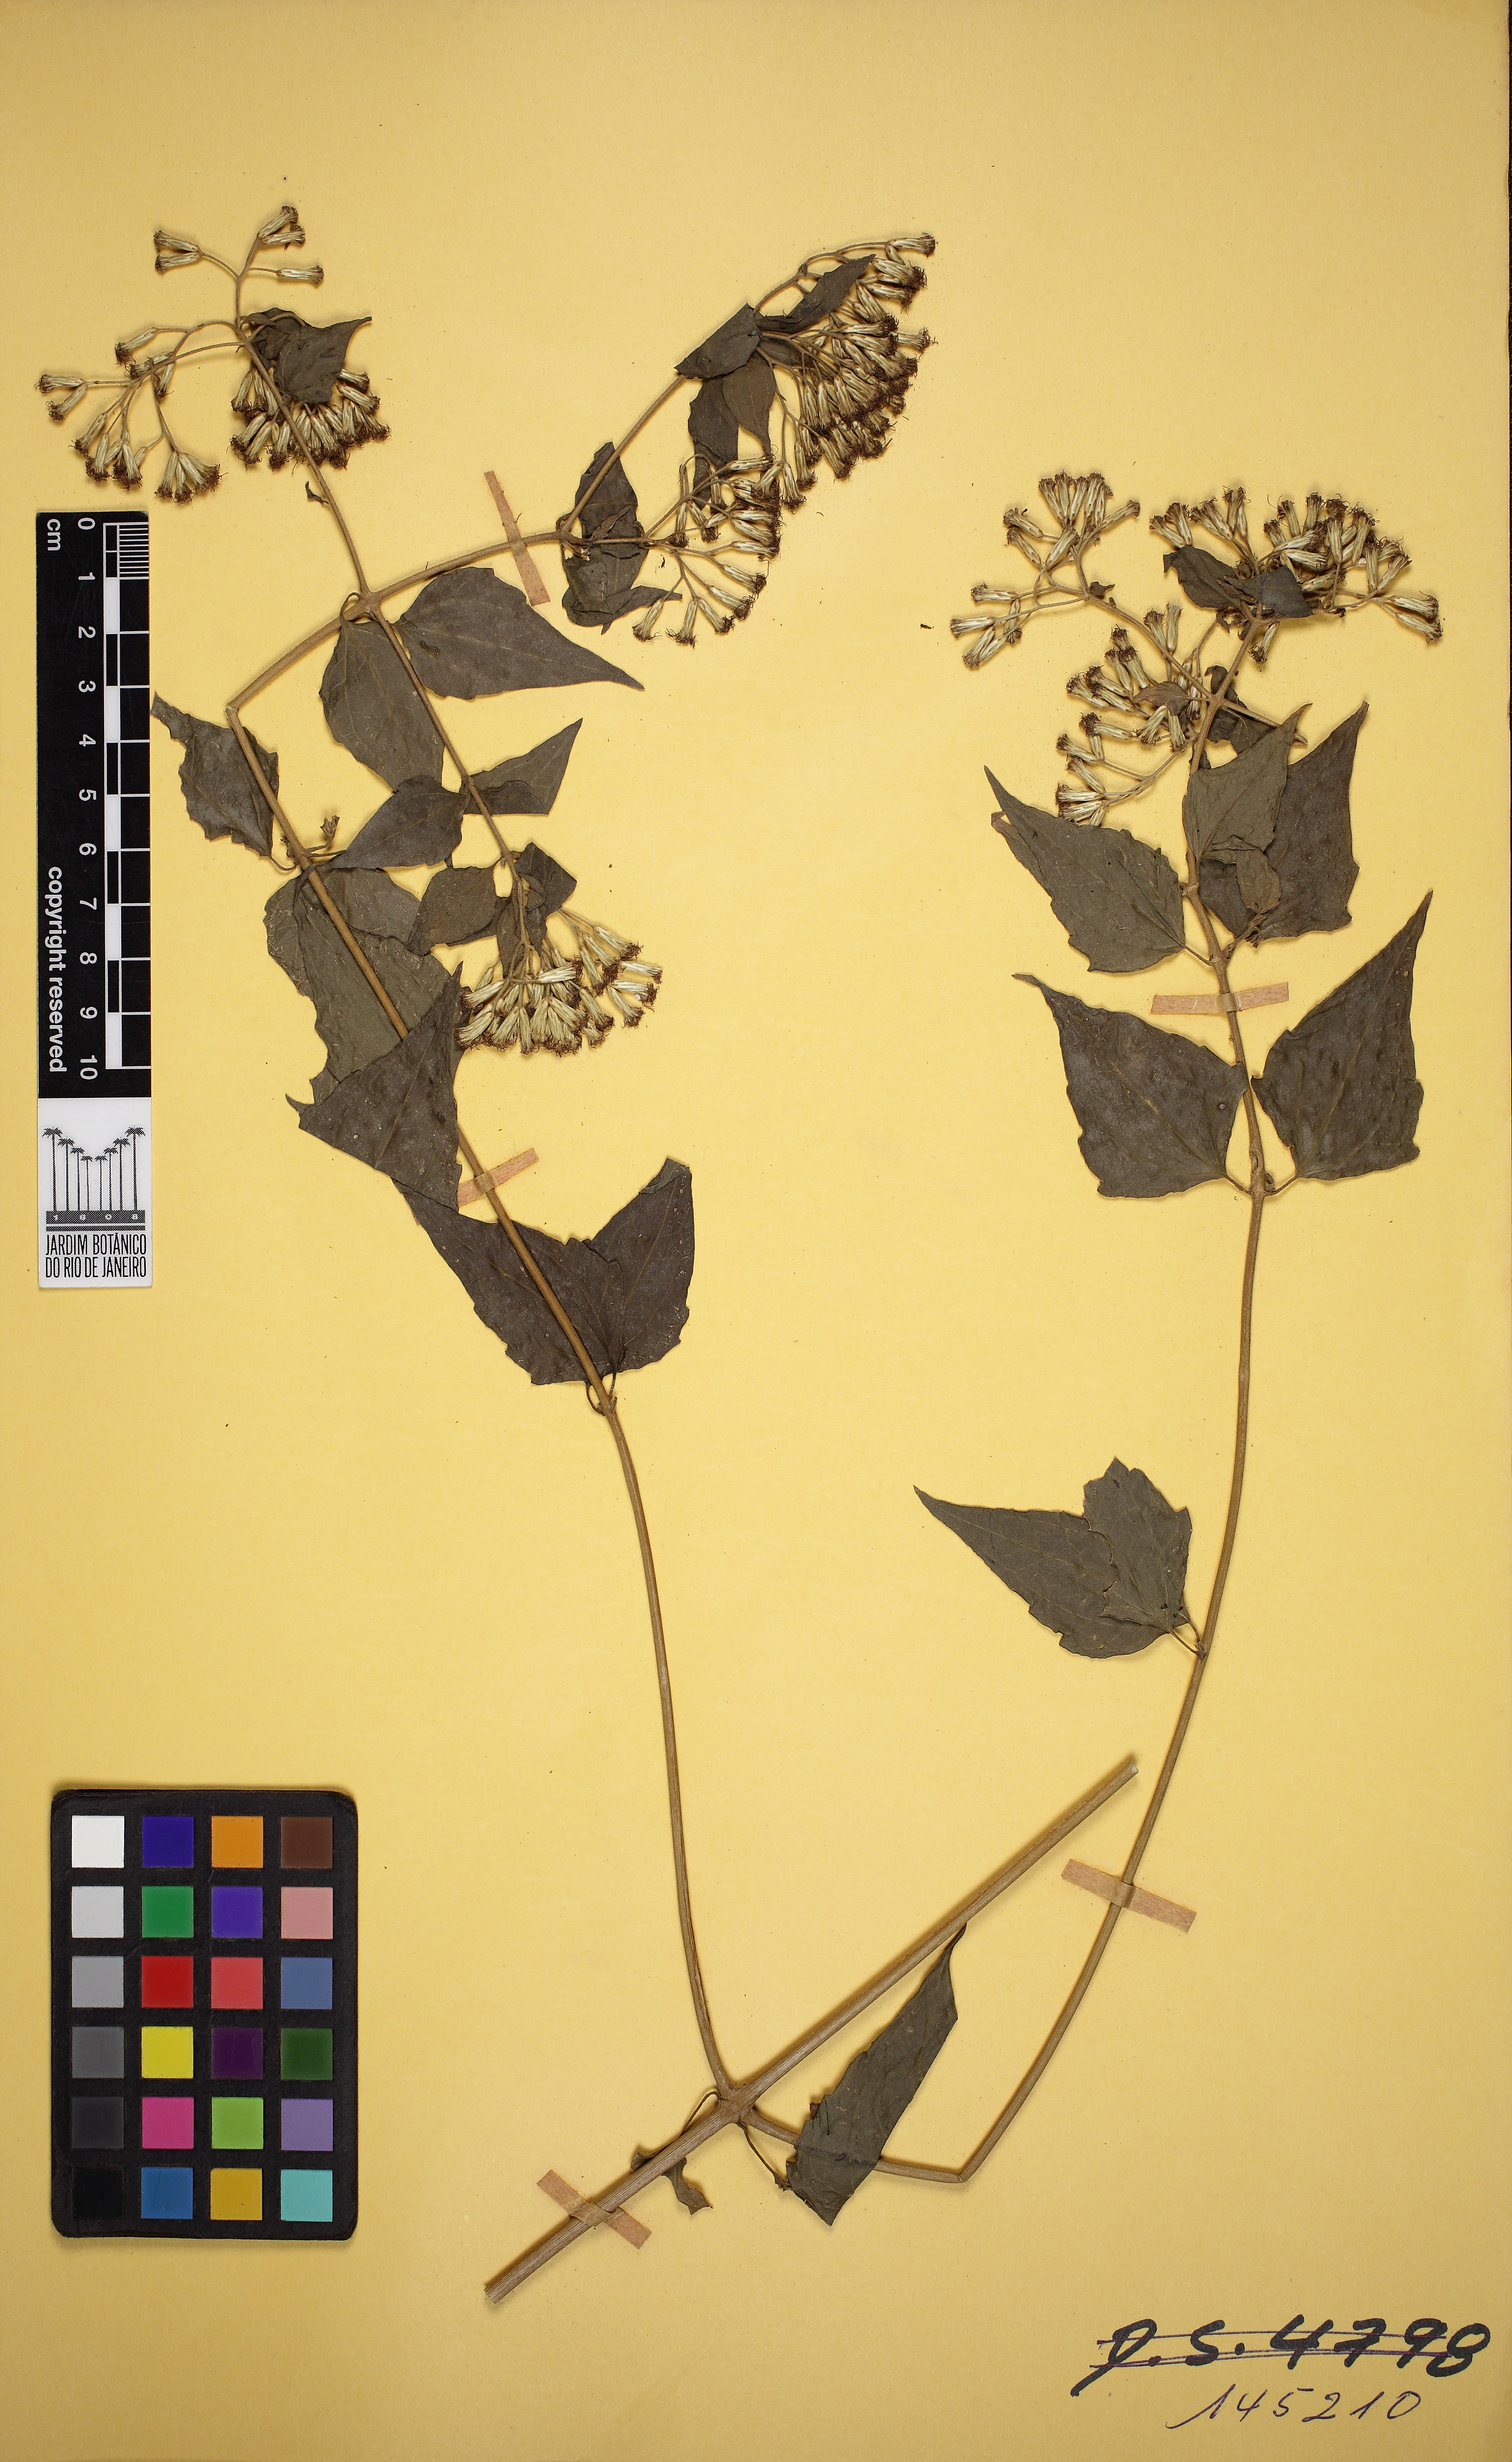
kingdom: Plantae
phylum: Tracheophyta
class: Magnoliopsida
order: Asterales
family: Asteraceae
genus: Chromolaena
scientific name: Chromolaena
